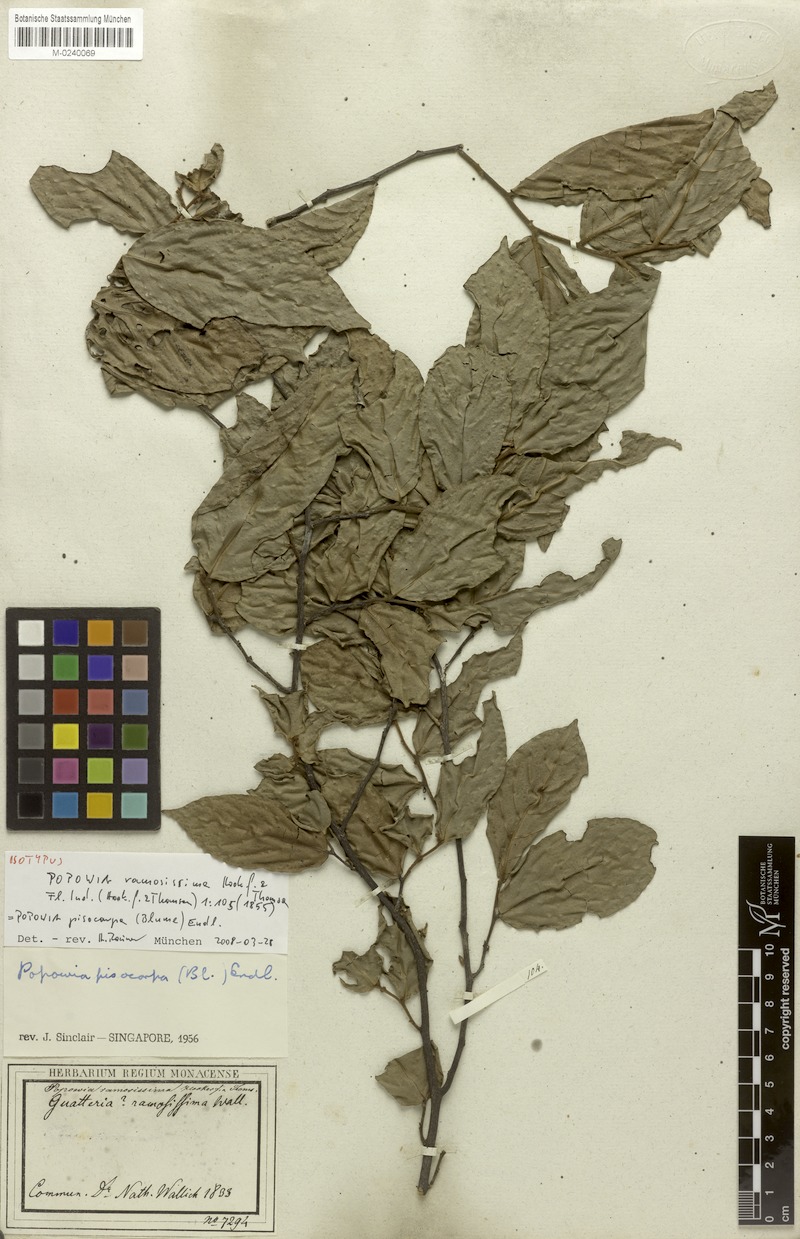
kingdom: Plantae
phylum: Tracheophyta
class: Magnoliopsida
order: Magnoliales
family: Annonaceae
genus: Popowia
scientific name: Popowia pisocarpa
